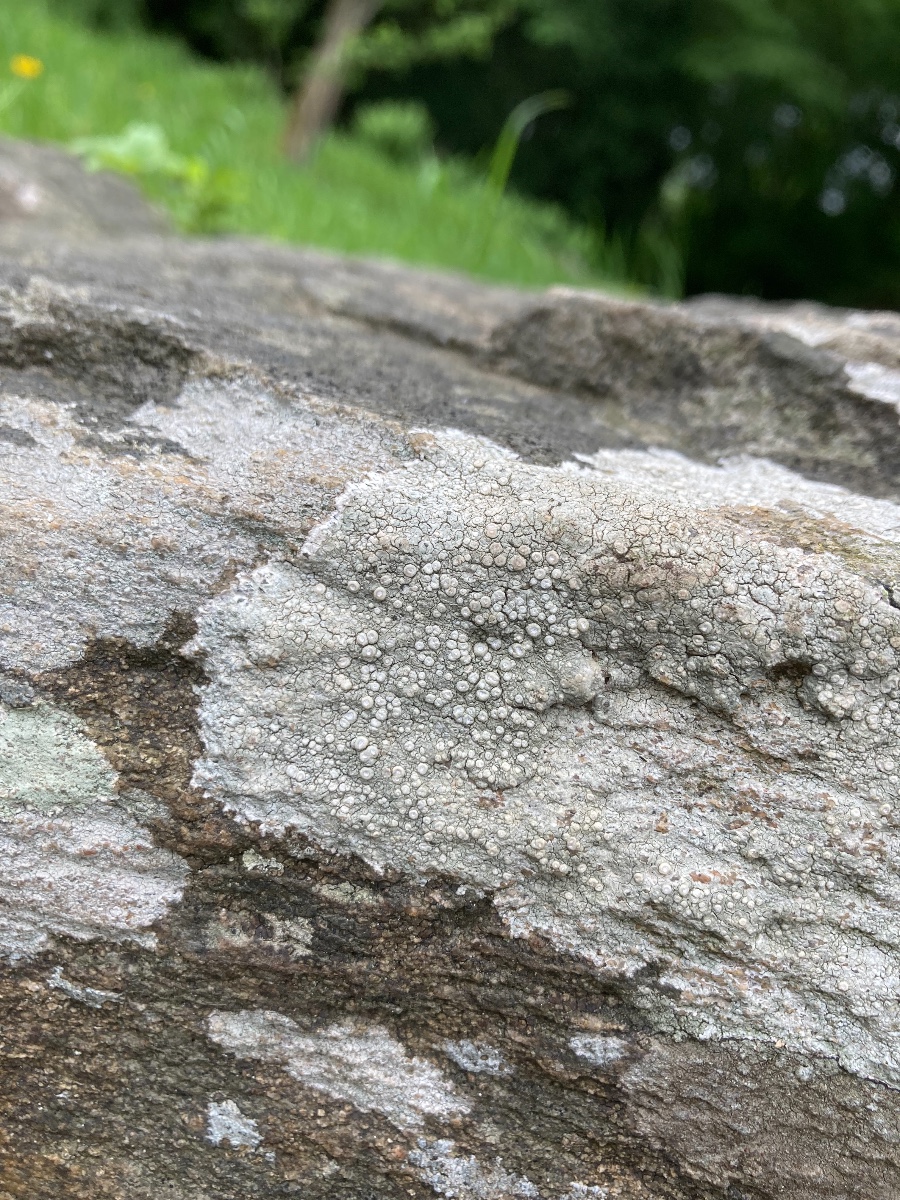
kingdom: Fungi
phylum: Ascomycota
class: Lecanoromycetes
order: Pertusariales
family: Ochrolechiaceae
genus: Ochrolechia
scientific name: Ochrolechia parella
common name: almindelig blegskivelav
